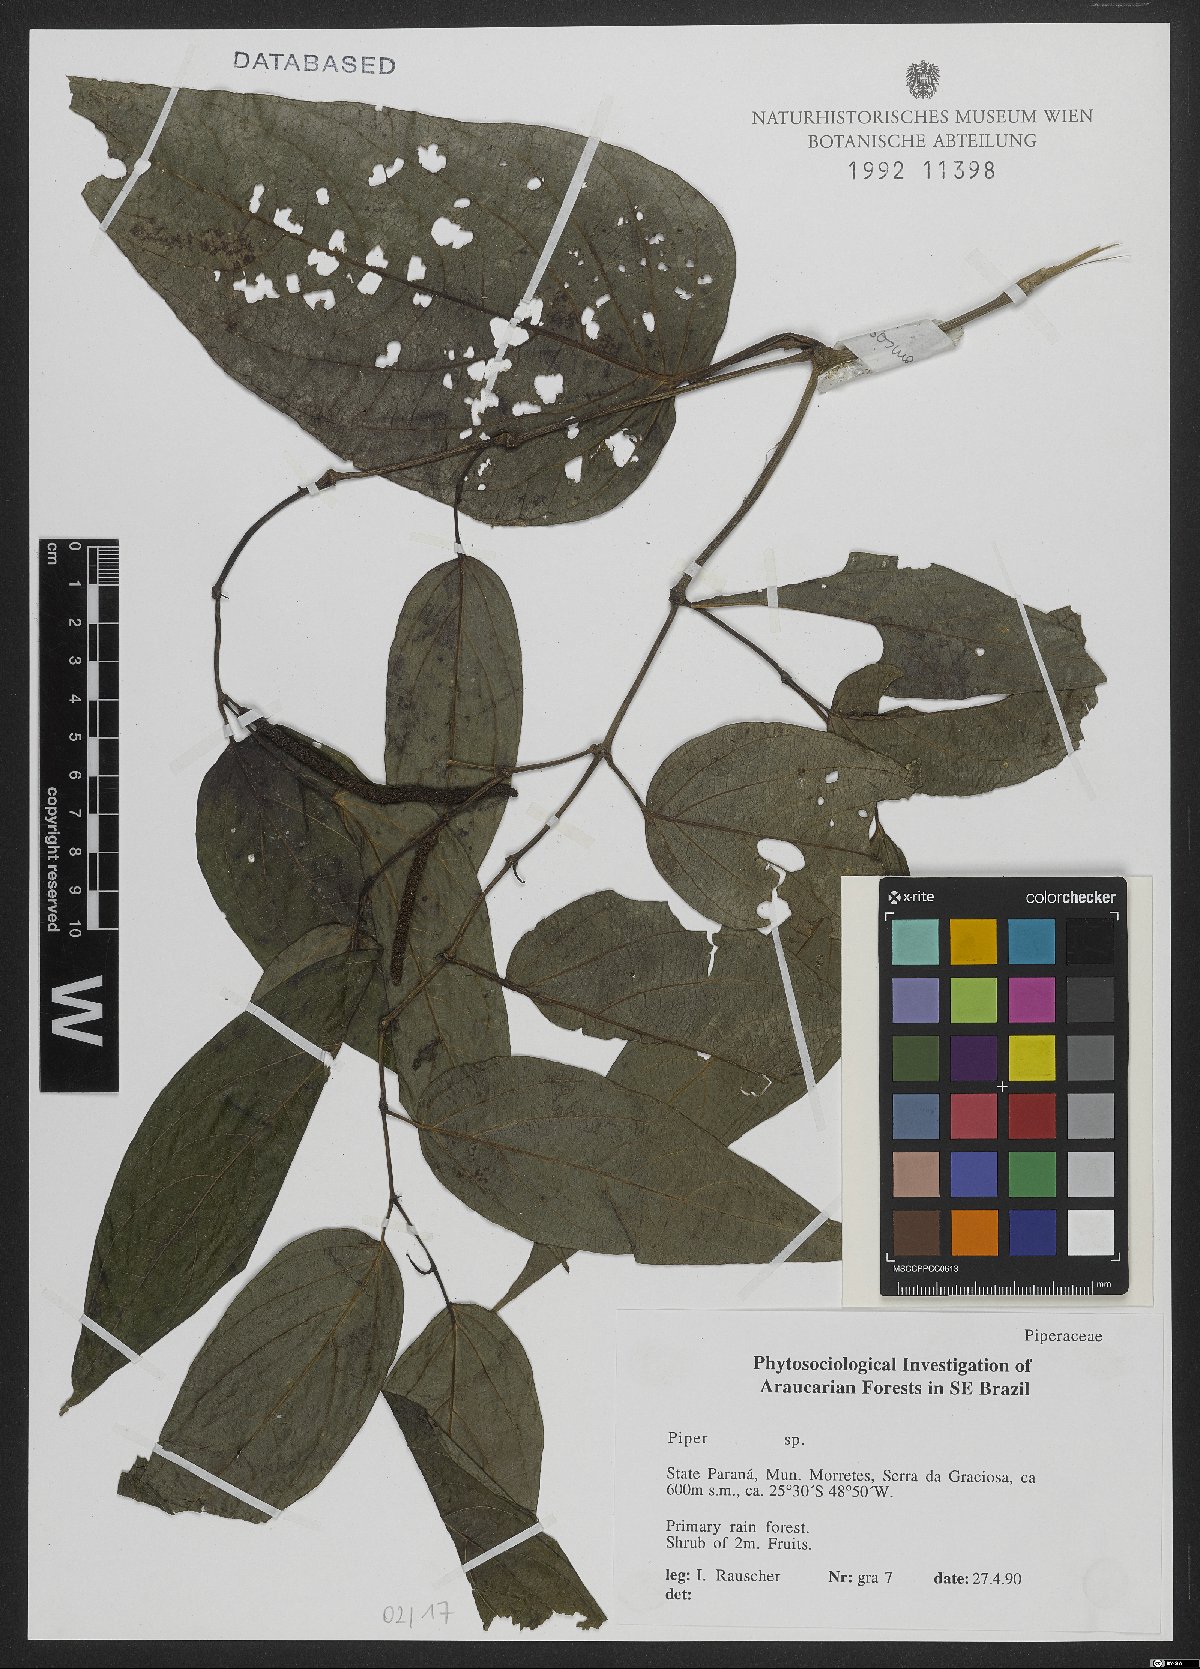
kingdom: Plantae
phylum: Tracheophyta
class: Magnoliopsida
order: Piperales
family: Piperaceae
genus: Piper
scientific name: Piper
